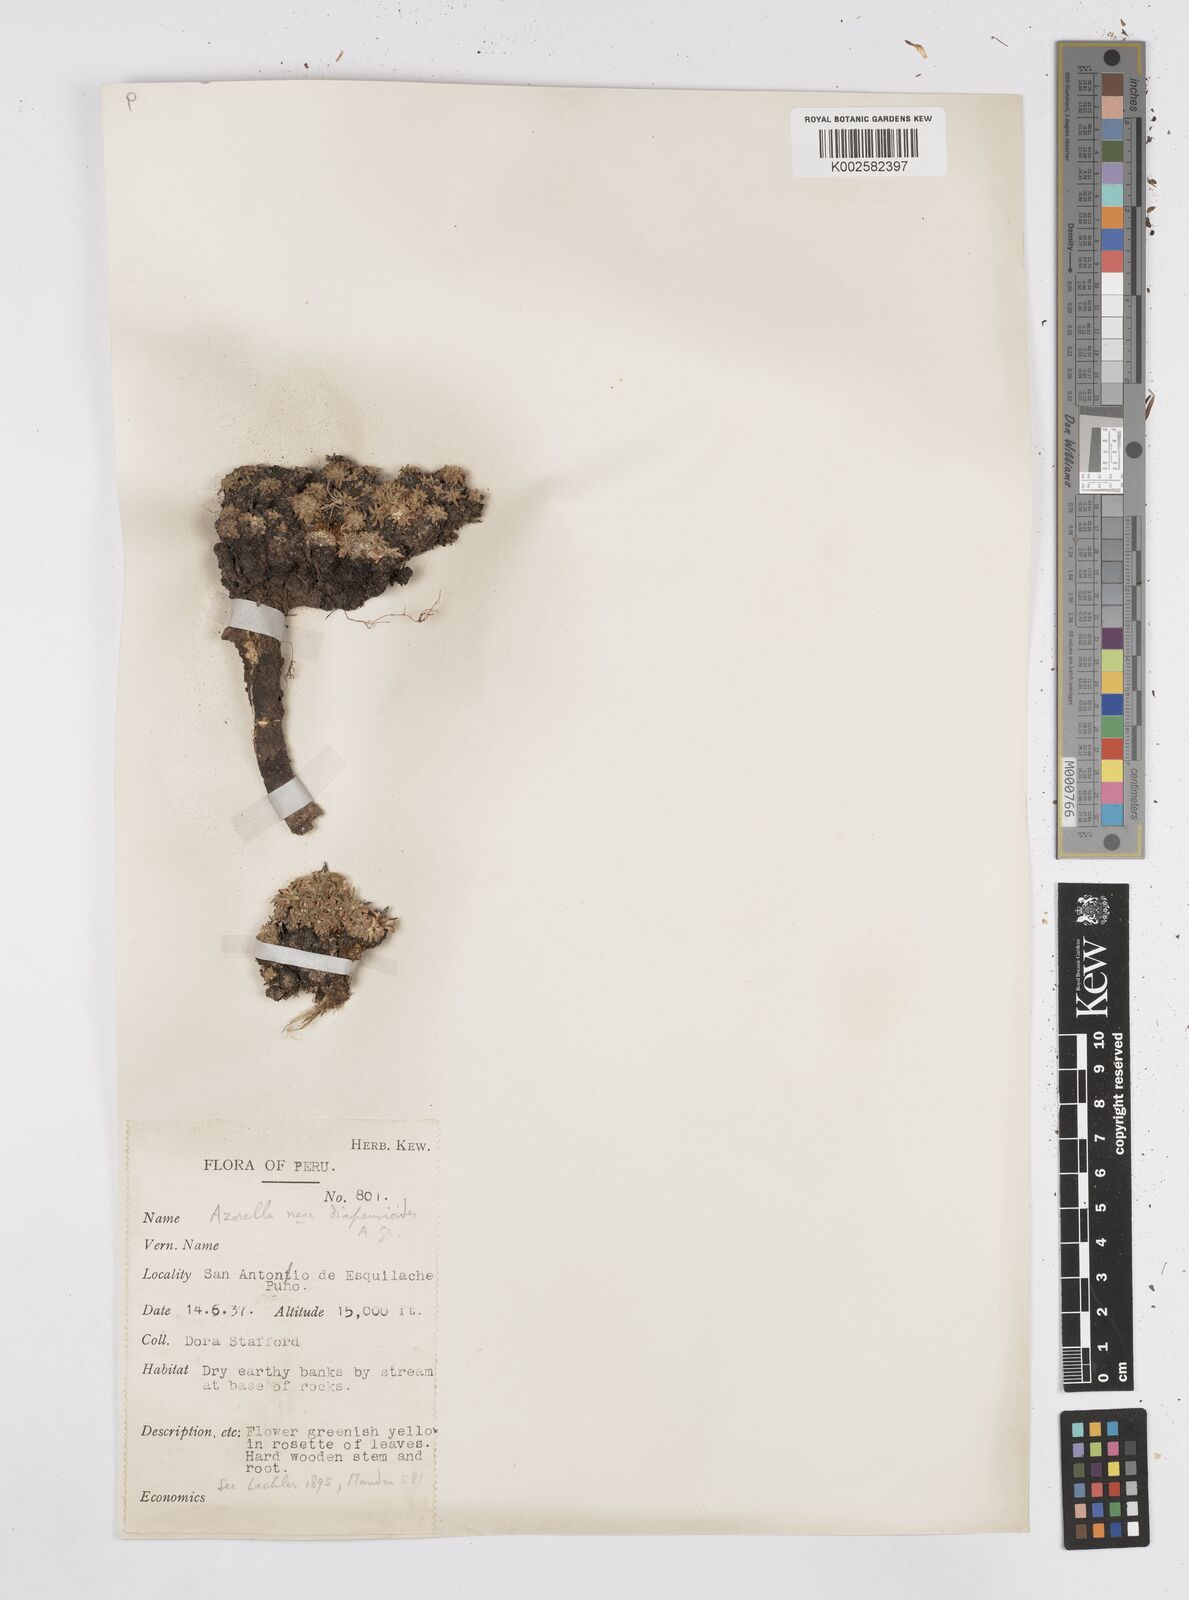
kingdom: Plantae
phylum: Tracheophyta
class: Magnoliopsida
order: Apiales
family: Apiaceae
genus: Azorella
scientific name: Azorella diapensioides
